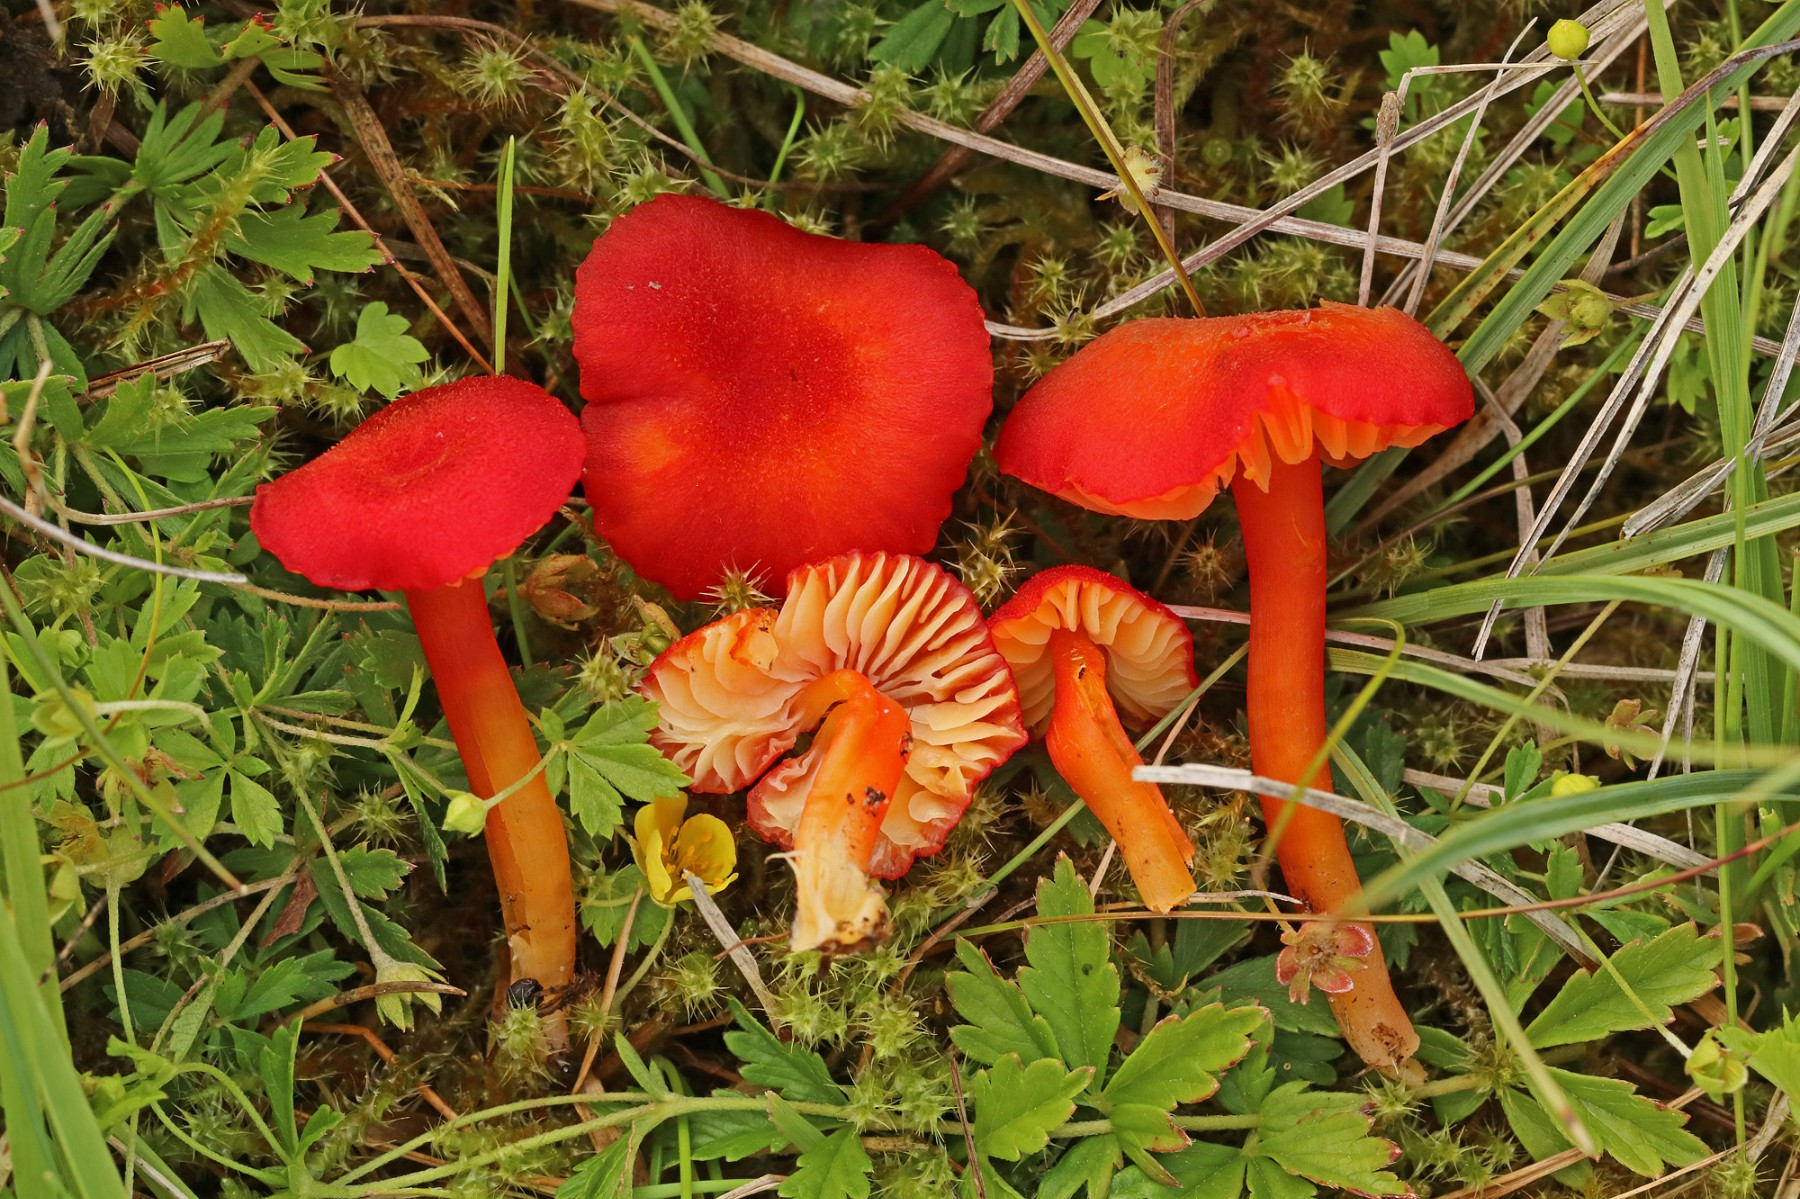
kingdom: Fungi
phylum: Basidiomycota
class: Agaricomycetes
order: Agaricales
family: Hygrophoraceae
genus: Hygrocybe
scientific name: Hygrocybe helobia
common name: hvidløgs-vokshat
